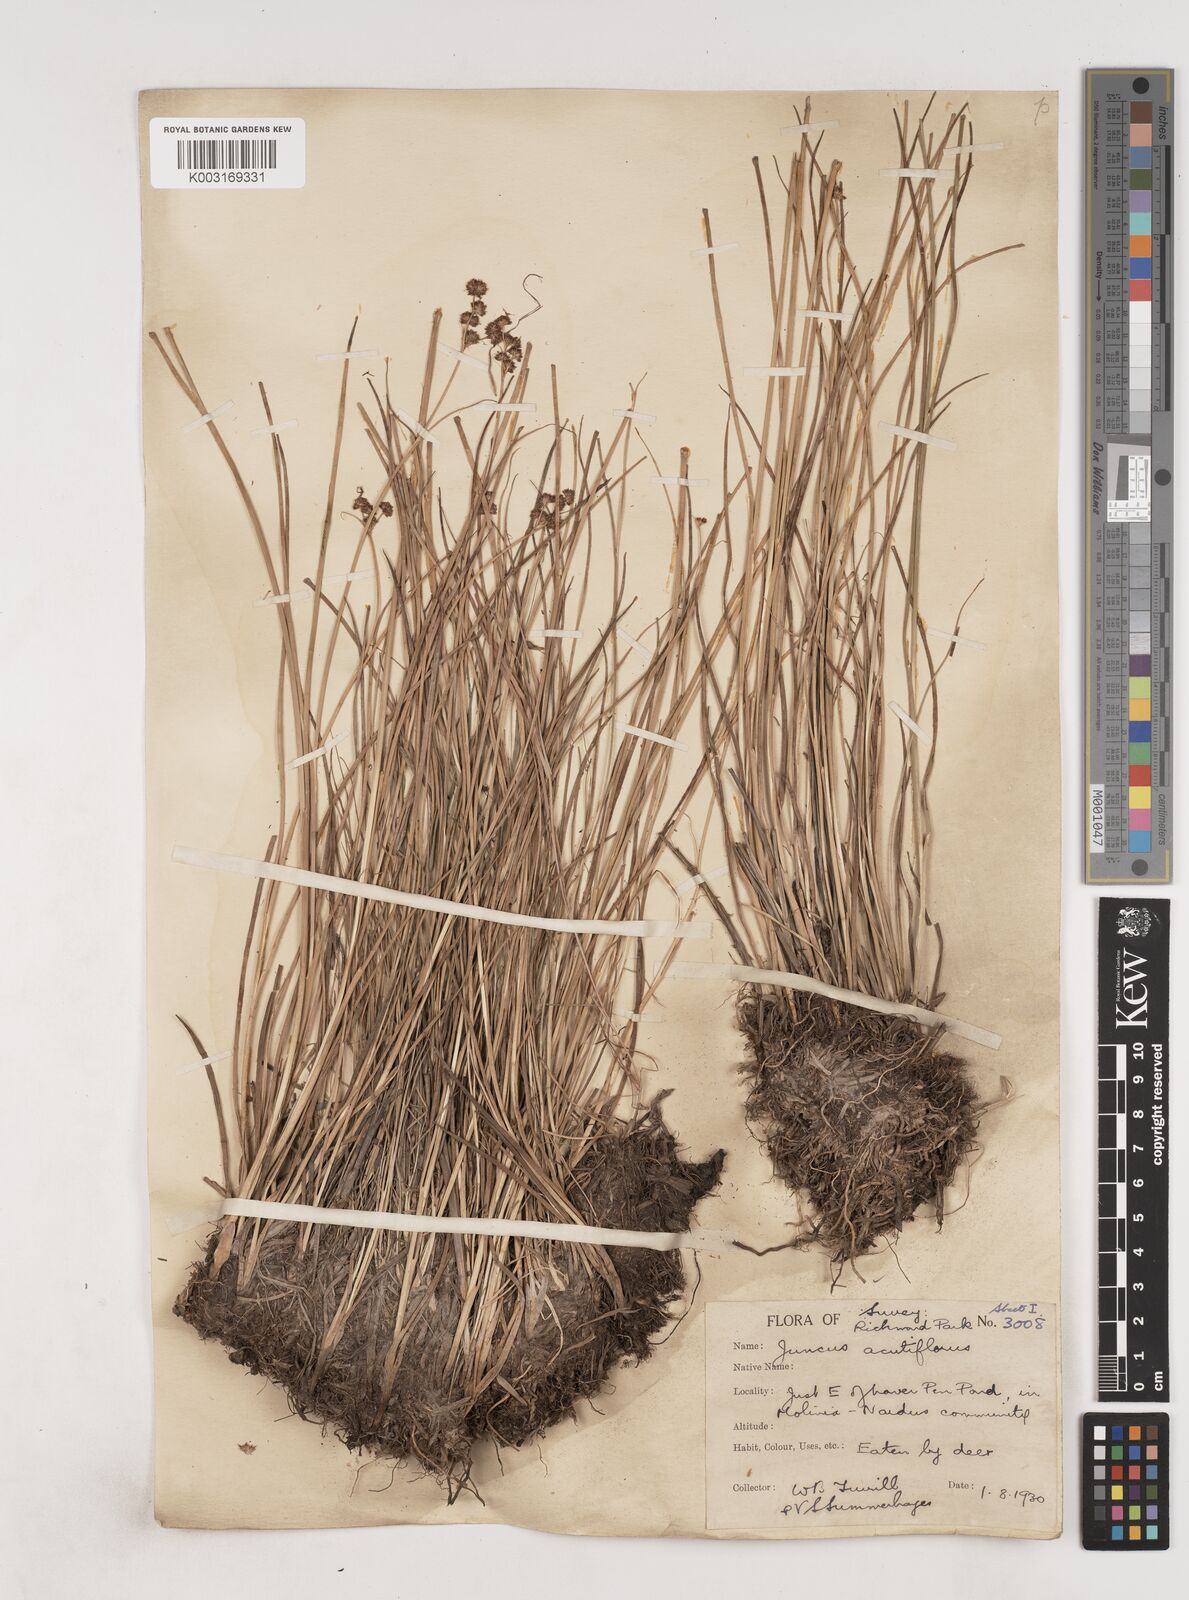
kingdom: Plantae
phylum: Tracheophyta
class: Liliopsida
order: Poales
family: Juncaceae
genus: Juncus
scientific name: Juncus acutiflorus
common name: Sharp-flowered rush
